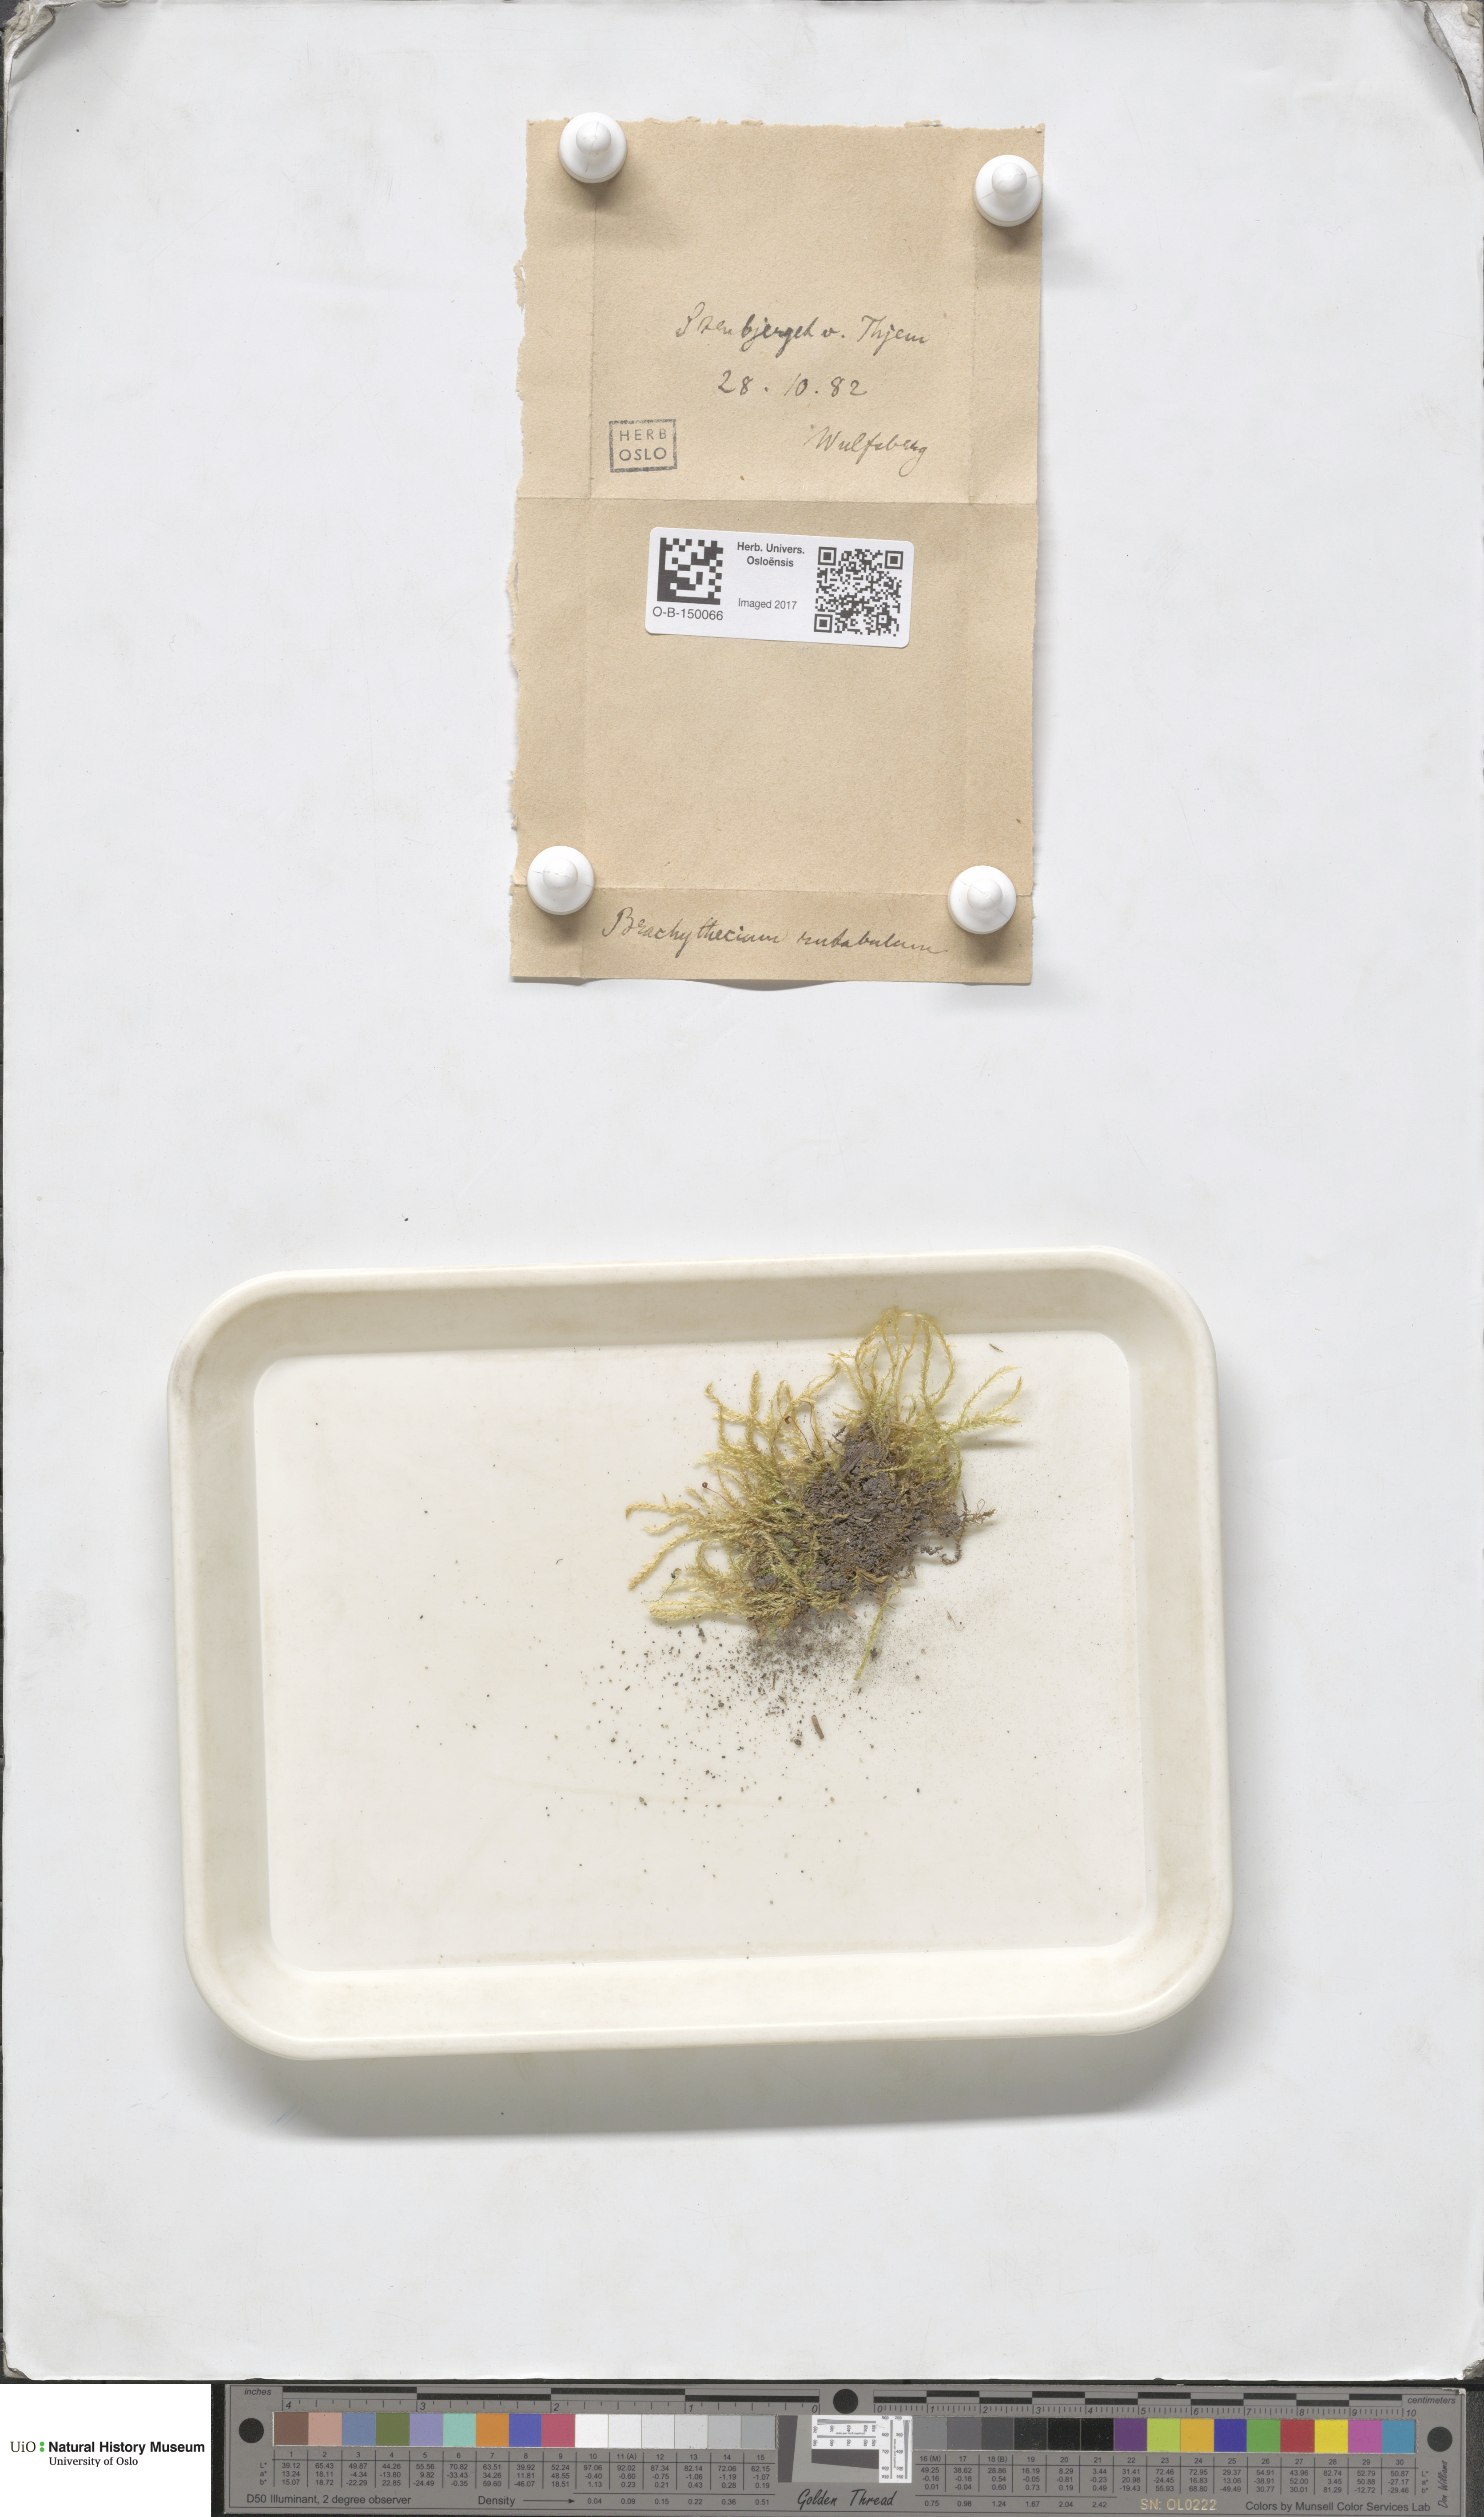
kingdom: Plantae
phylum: Bryophyta
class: Bryopsida
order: Hypnales
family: Brachytheciaceae
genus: Brachythecium
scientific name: Brachythecium rutabulum
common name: Rough-stalked feather-moss
